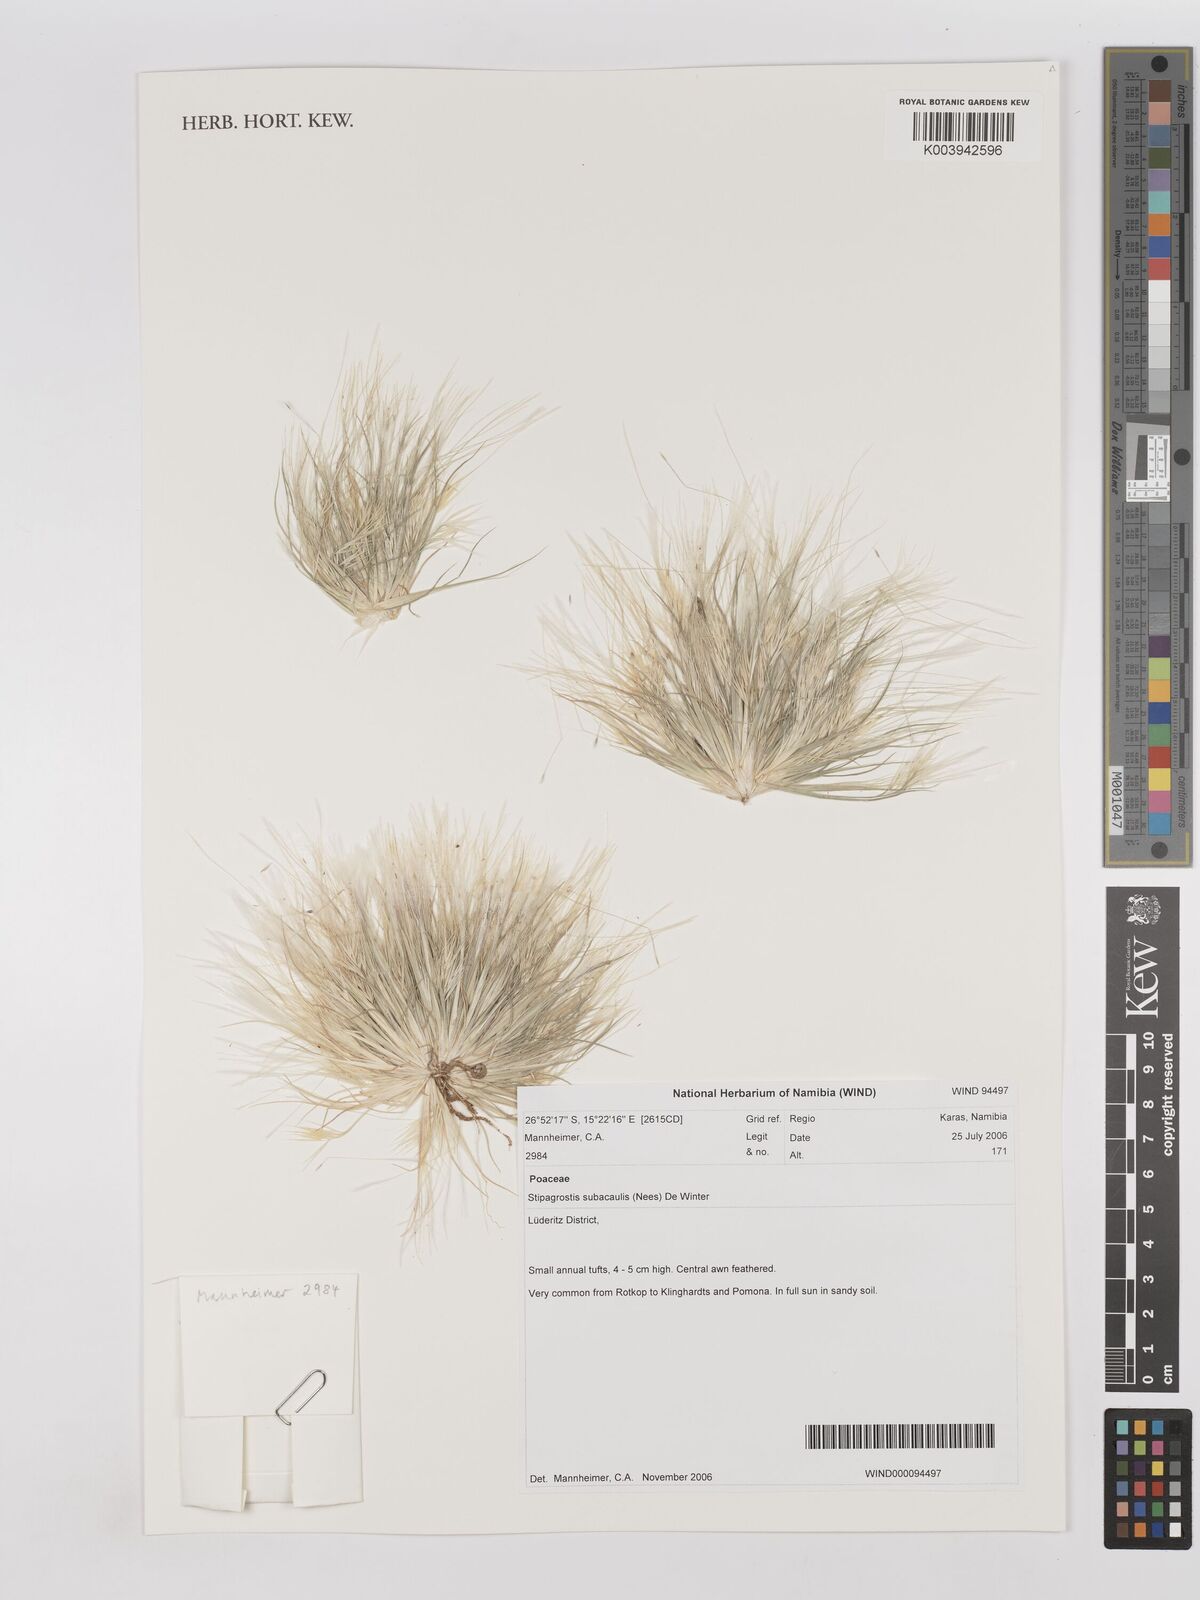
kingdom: Plantae
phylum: Tracheophyta
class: Liliopsida
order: Poales
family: Poaceae
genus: Stipagrostis
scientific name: Stipagrostis subacaulis
